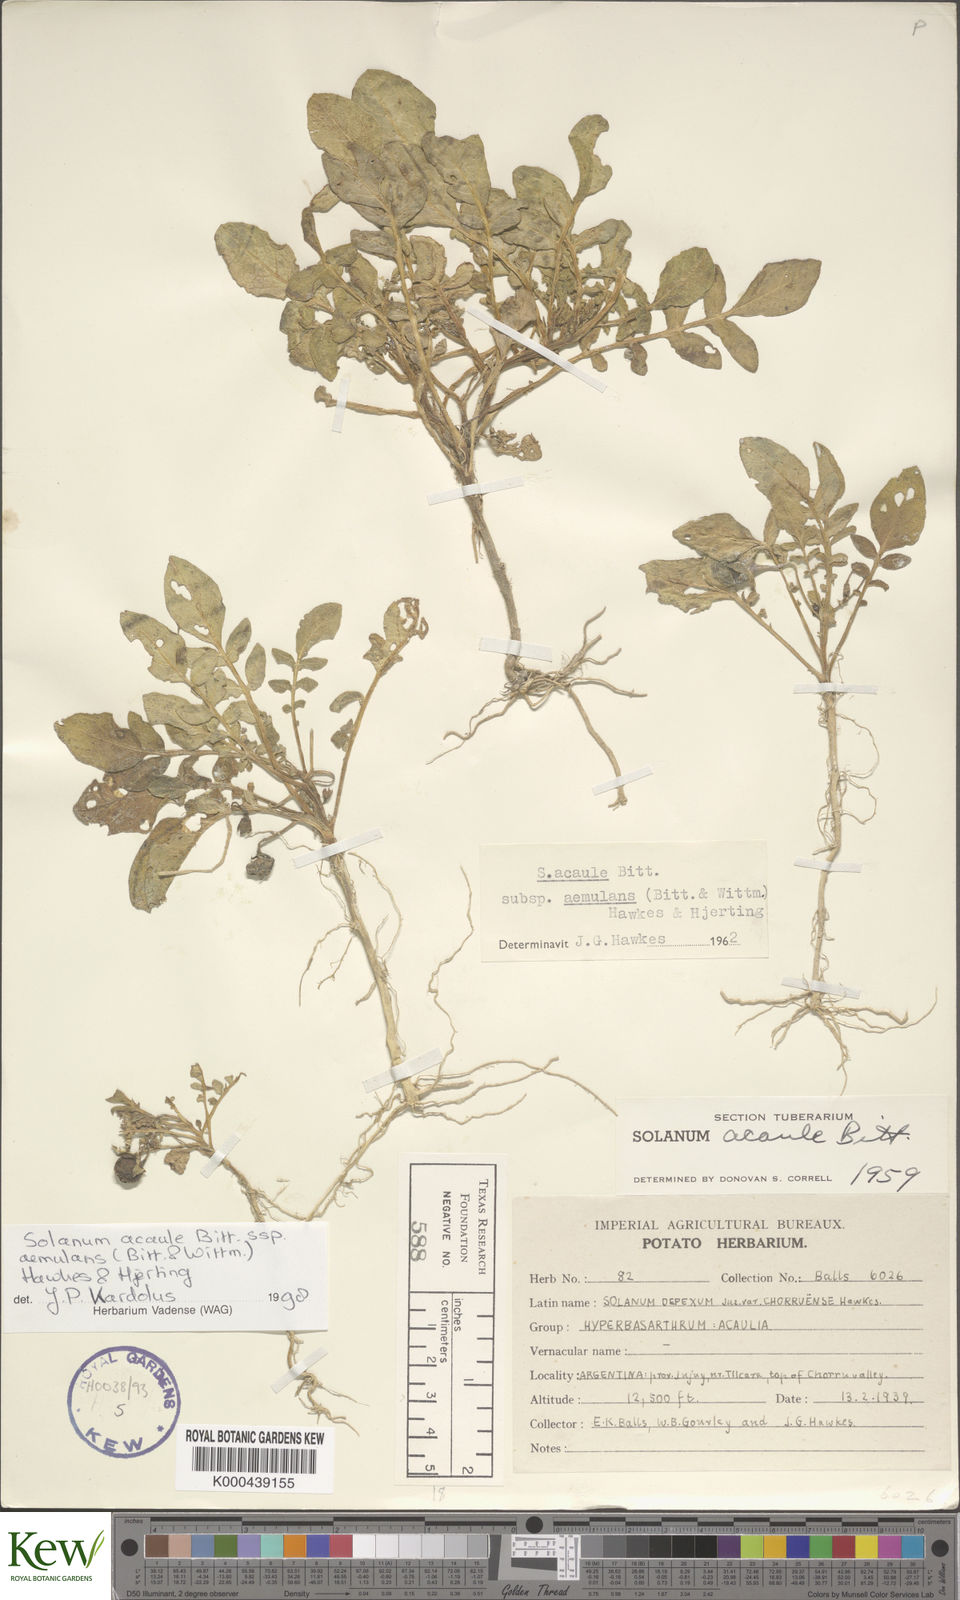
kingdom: Plantae
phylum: Tracheophyta
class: Magnoliopsida
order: Solanales
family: Solanaceae
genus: Solanum
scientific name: Solanum aemulans
